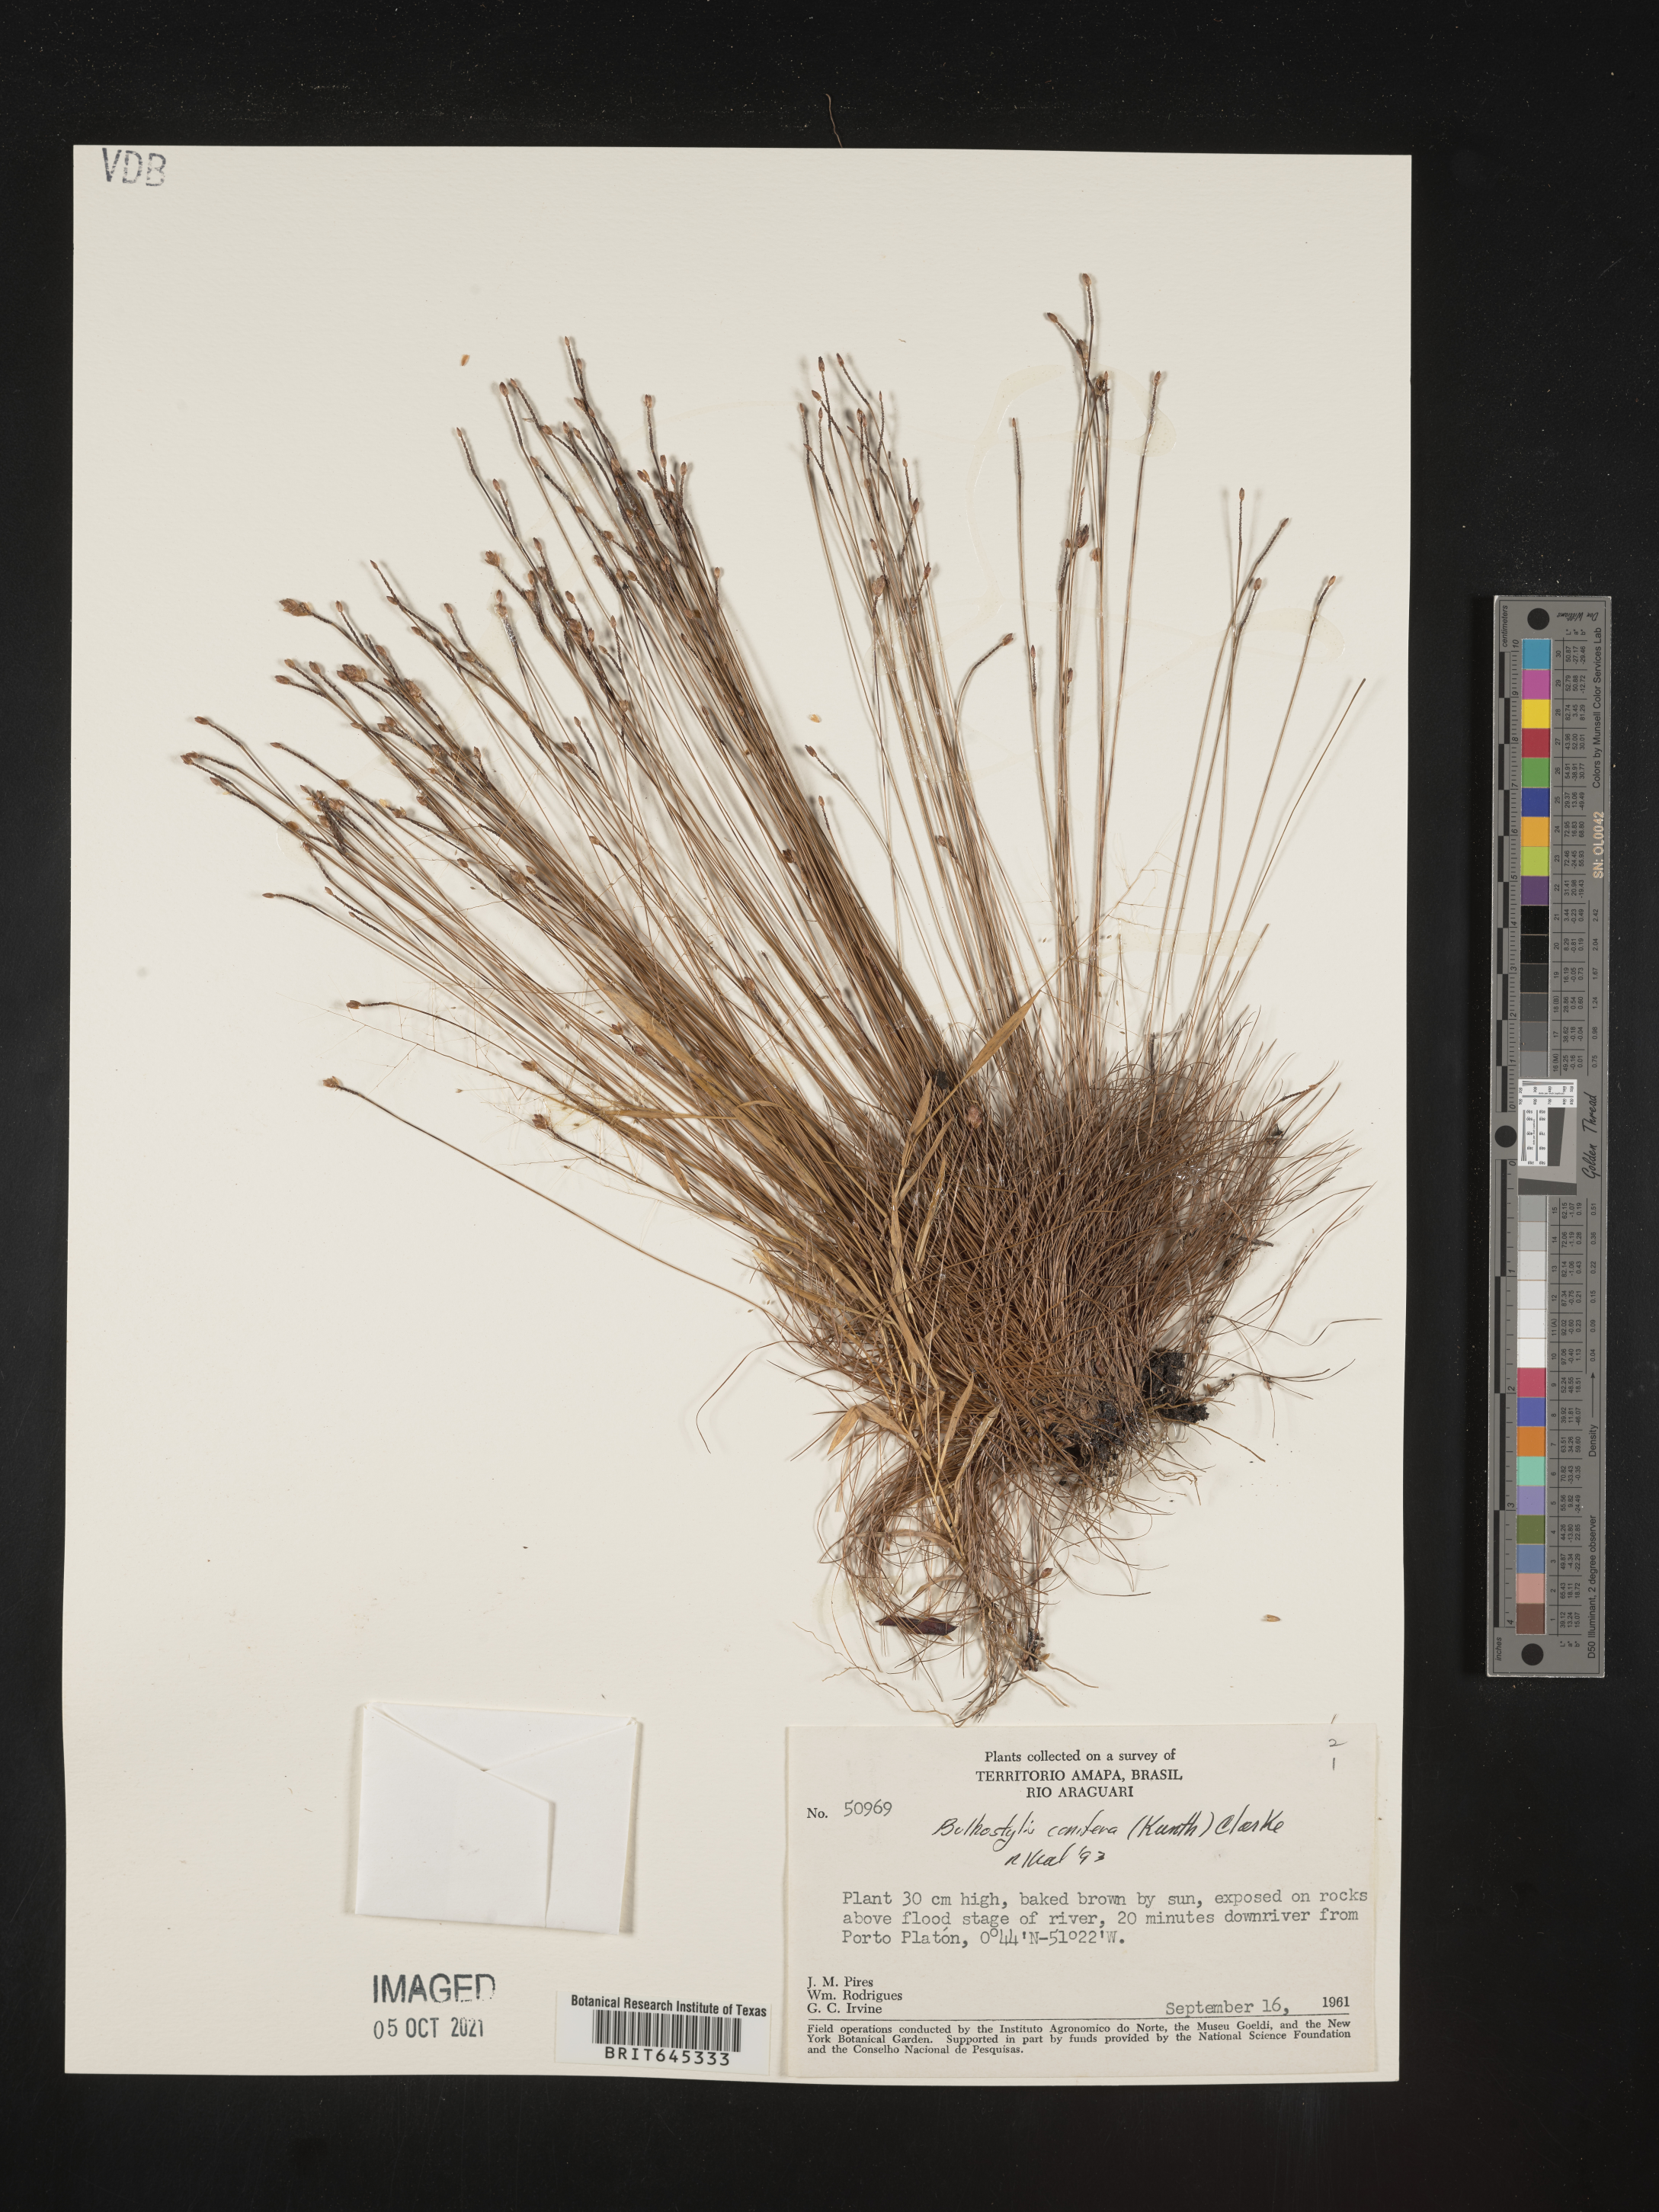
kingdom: Plantae
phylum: Tracheophyta
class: Liliopsida
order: Poales
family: Cyperaceae
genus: Bulbostylis
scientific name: Bulbostylis conifera
